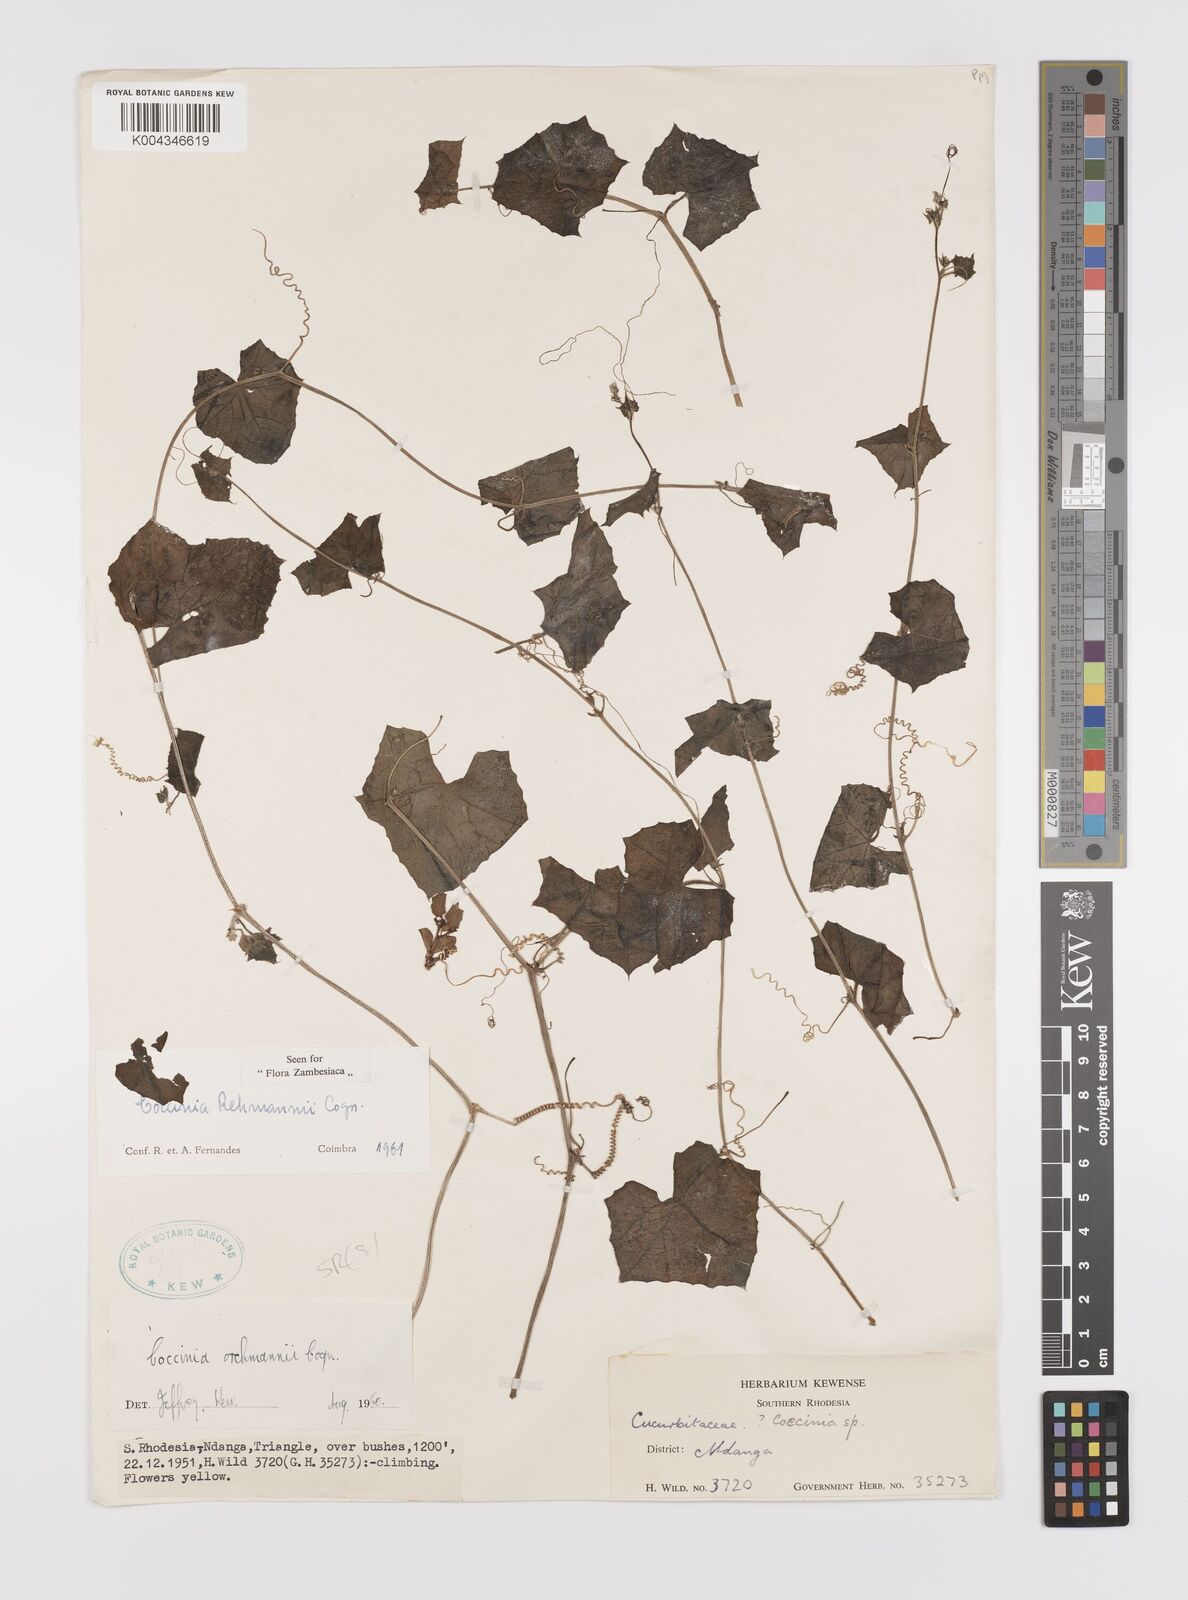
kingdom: Plantae
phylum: Tracheophyta
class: Magnoliopsida
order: Cucurbitales
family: Cucurbitaceae
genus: Coccinia
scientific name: Coccinia rehmannii
